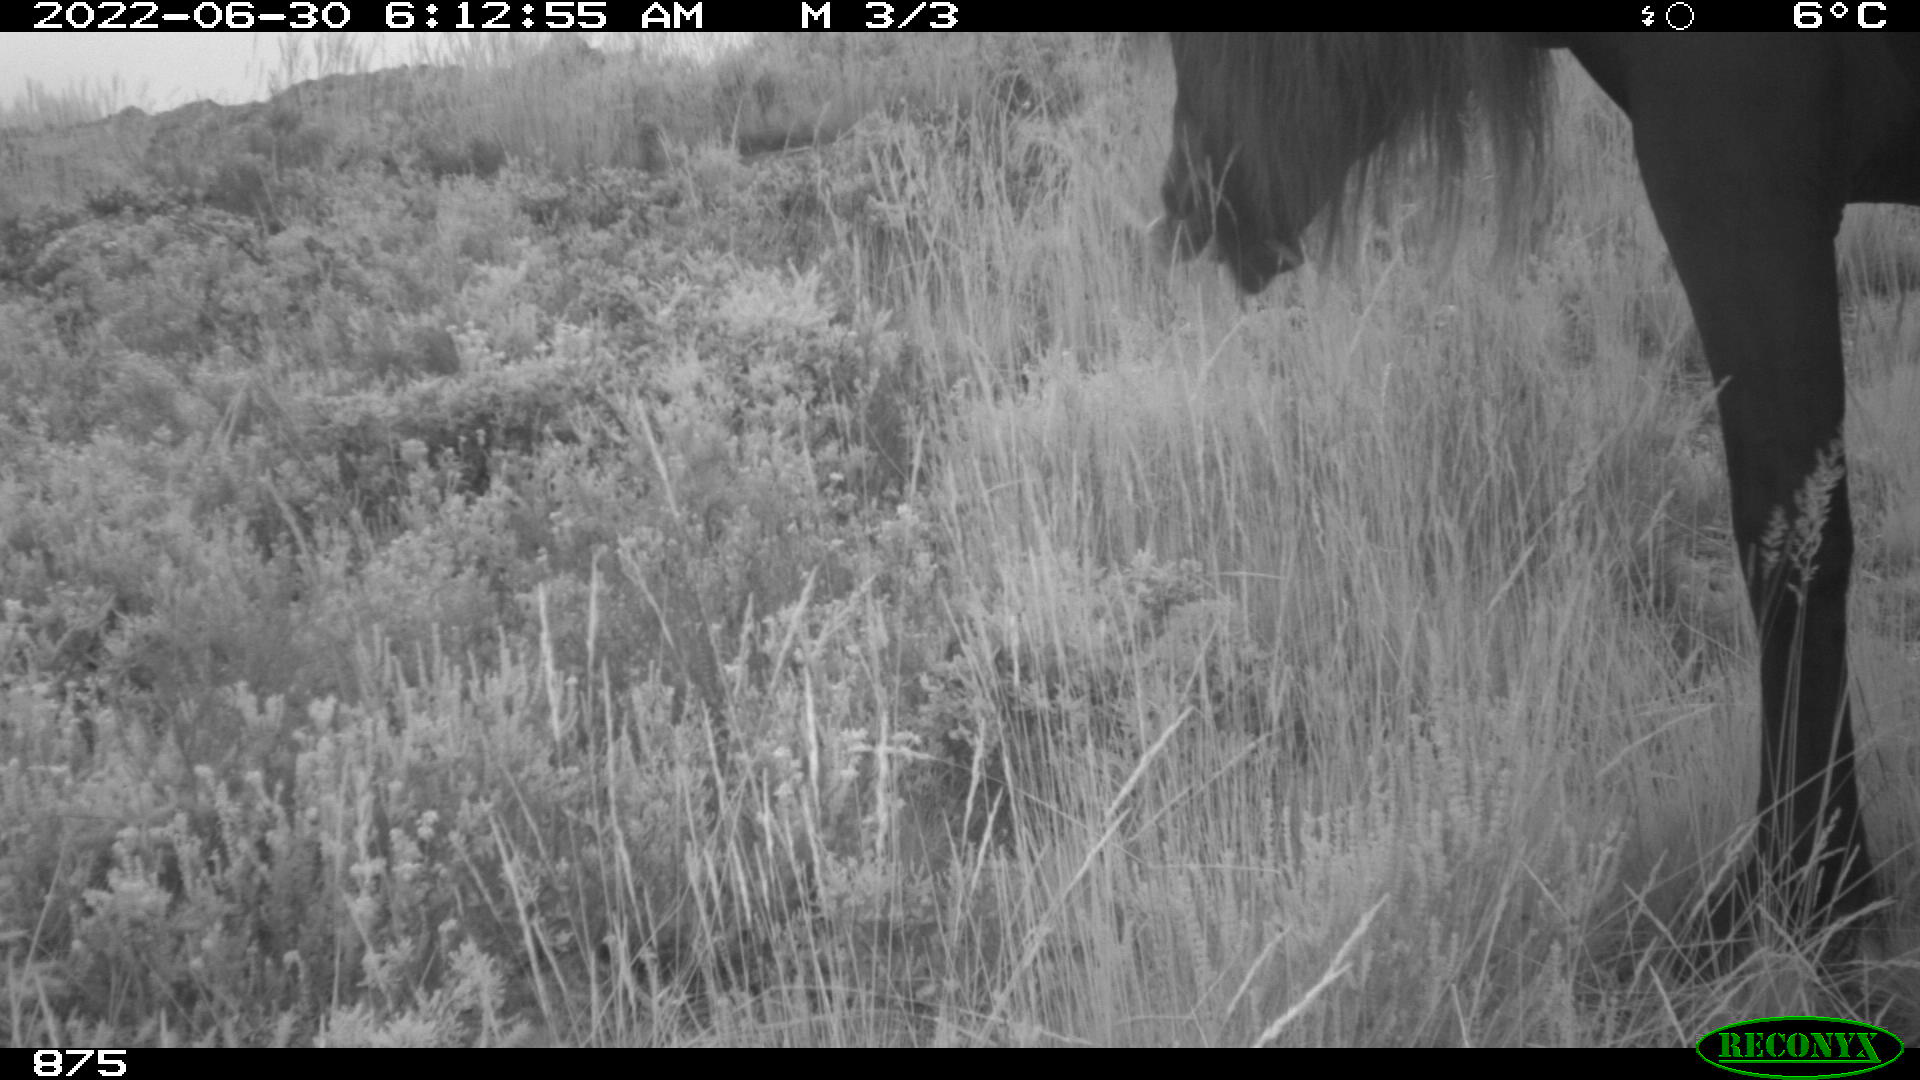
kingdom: Animalia
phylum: Chordata
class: Mammalia
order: Perissodactyla
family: Equidae
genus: Equus
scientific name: Equus caballus
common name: Horse
